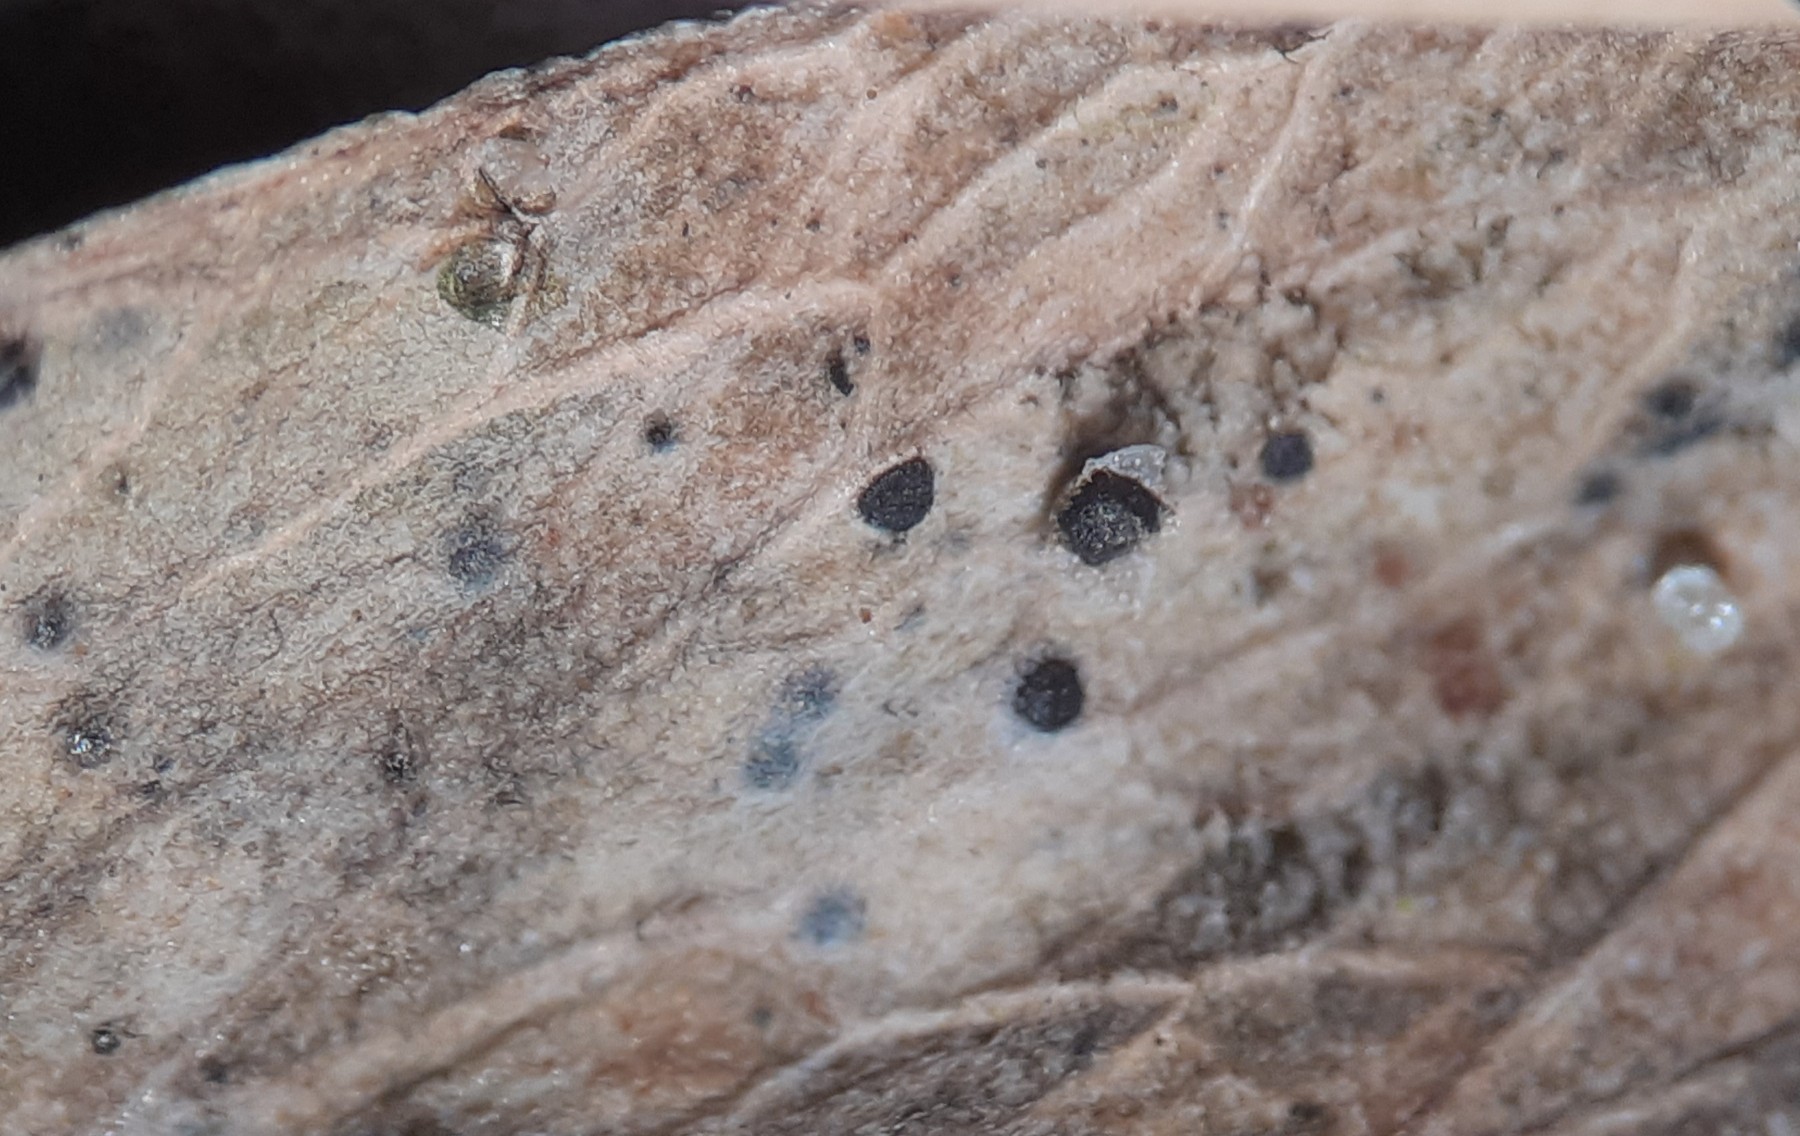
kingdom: Fungi
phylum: Ascomycota
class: Dothideomycetes
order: Pleosporales
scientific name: Pleosporales
